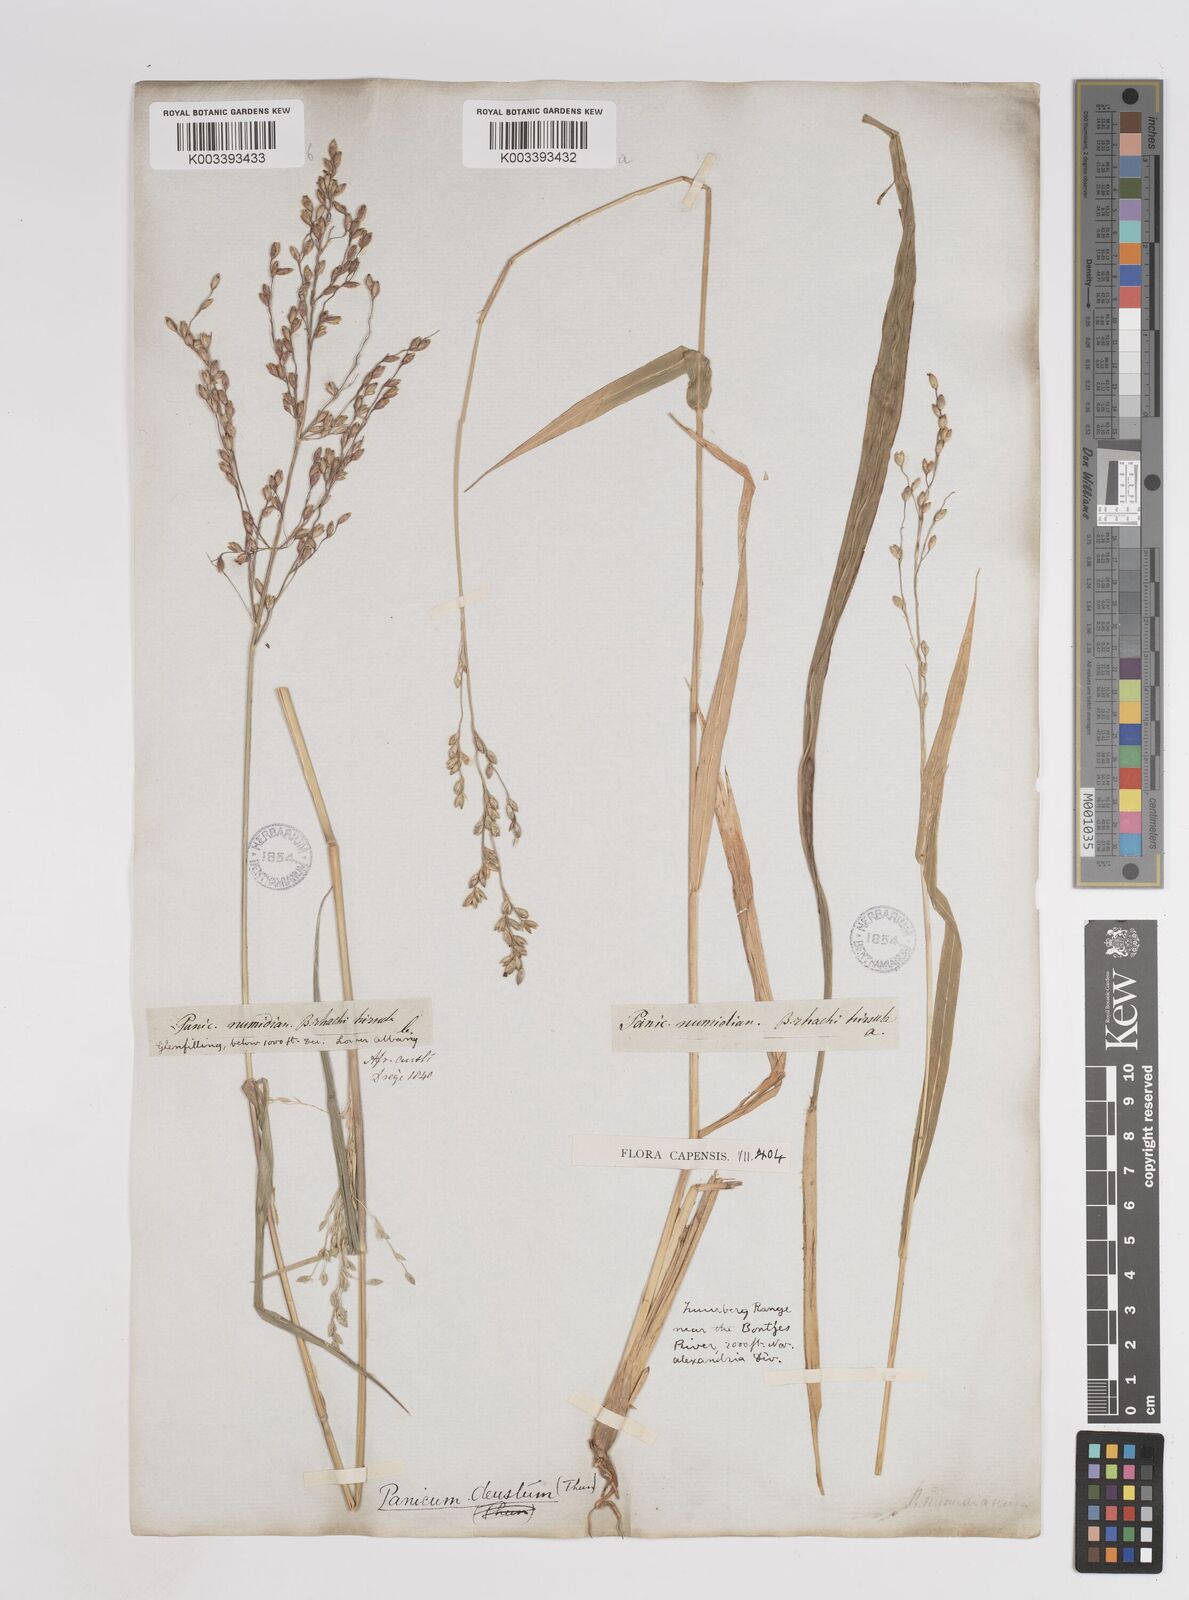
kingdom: Plantae
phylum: Tracheophyta
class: Liliopsida
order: Poales
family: Poaceae
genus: Panicum
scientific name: Panicum deustum
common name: Reed panicum
